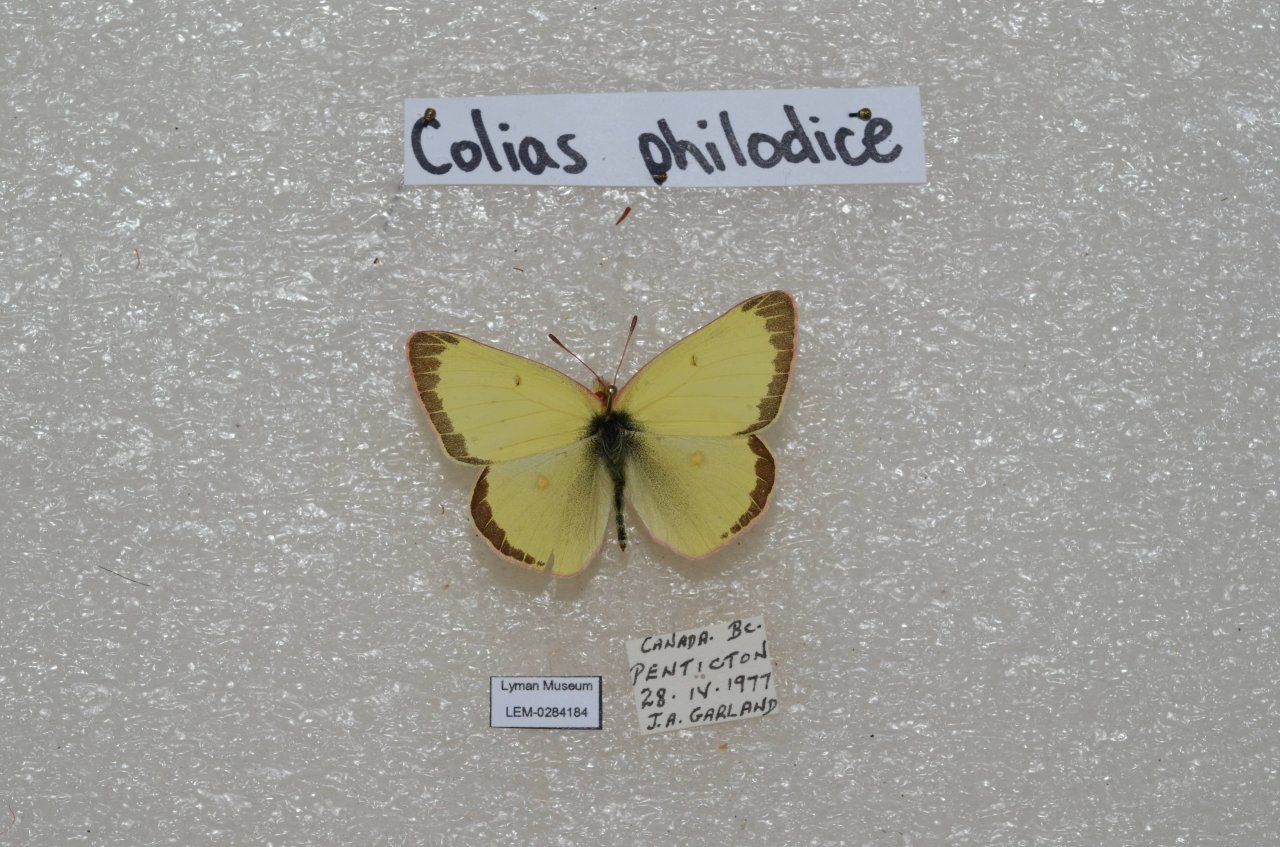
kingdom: Animalia
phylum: Arthropoda
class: Insecta
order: Lepidoptera
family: Pieridae
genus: Colias
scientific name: Colias philodice
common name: Clouded Sulphur
